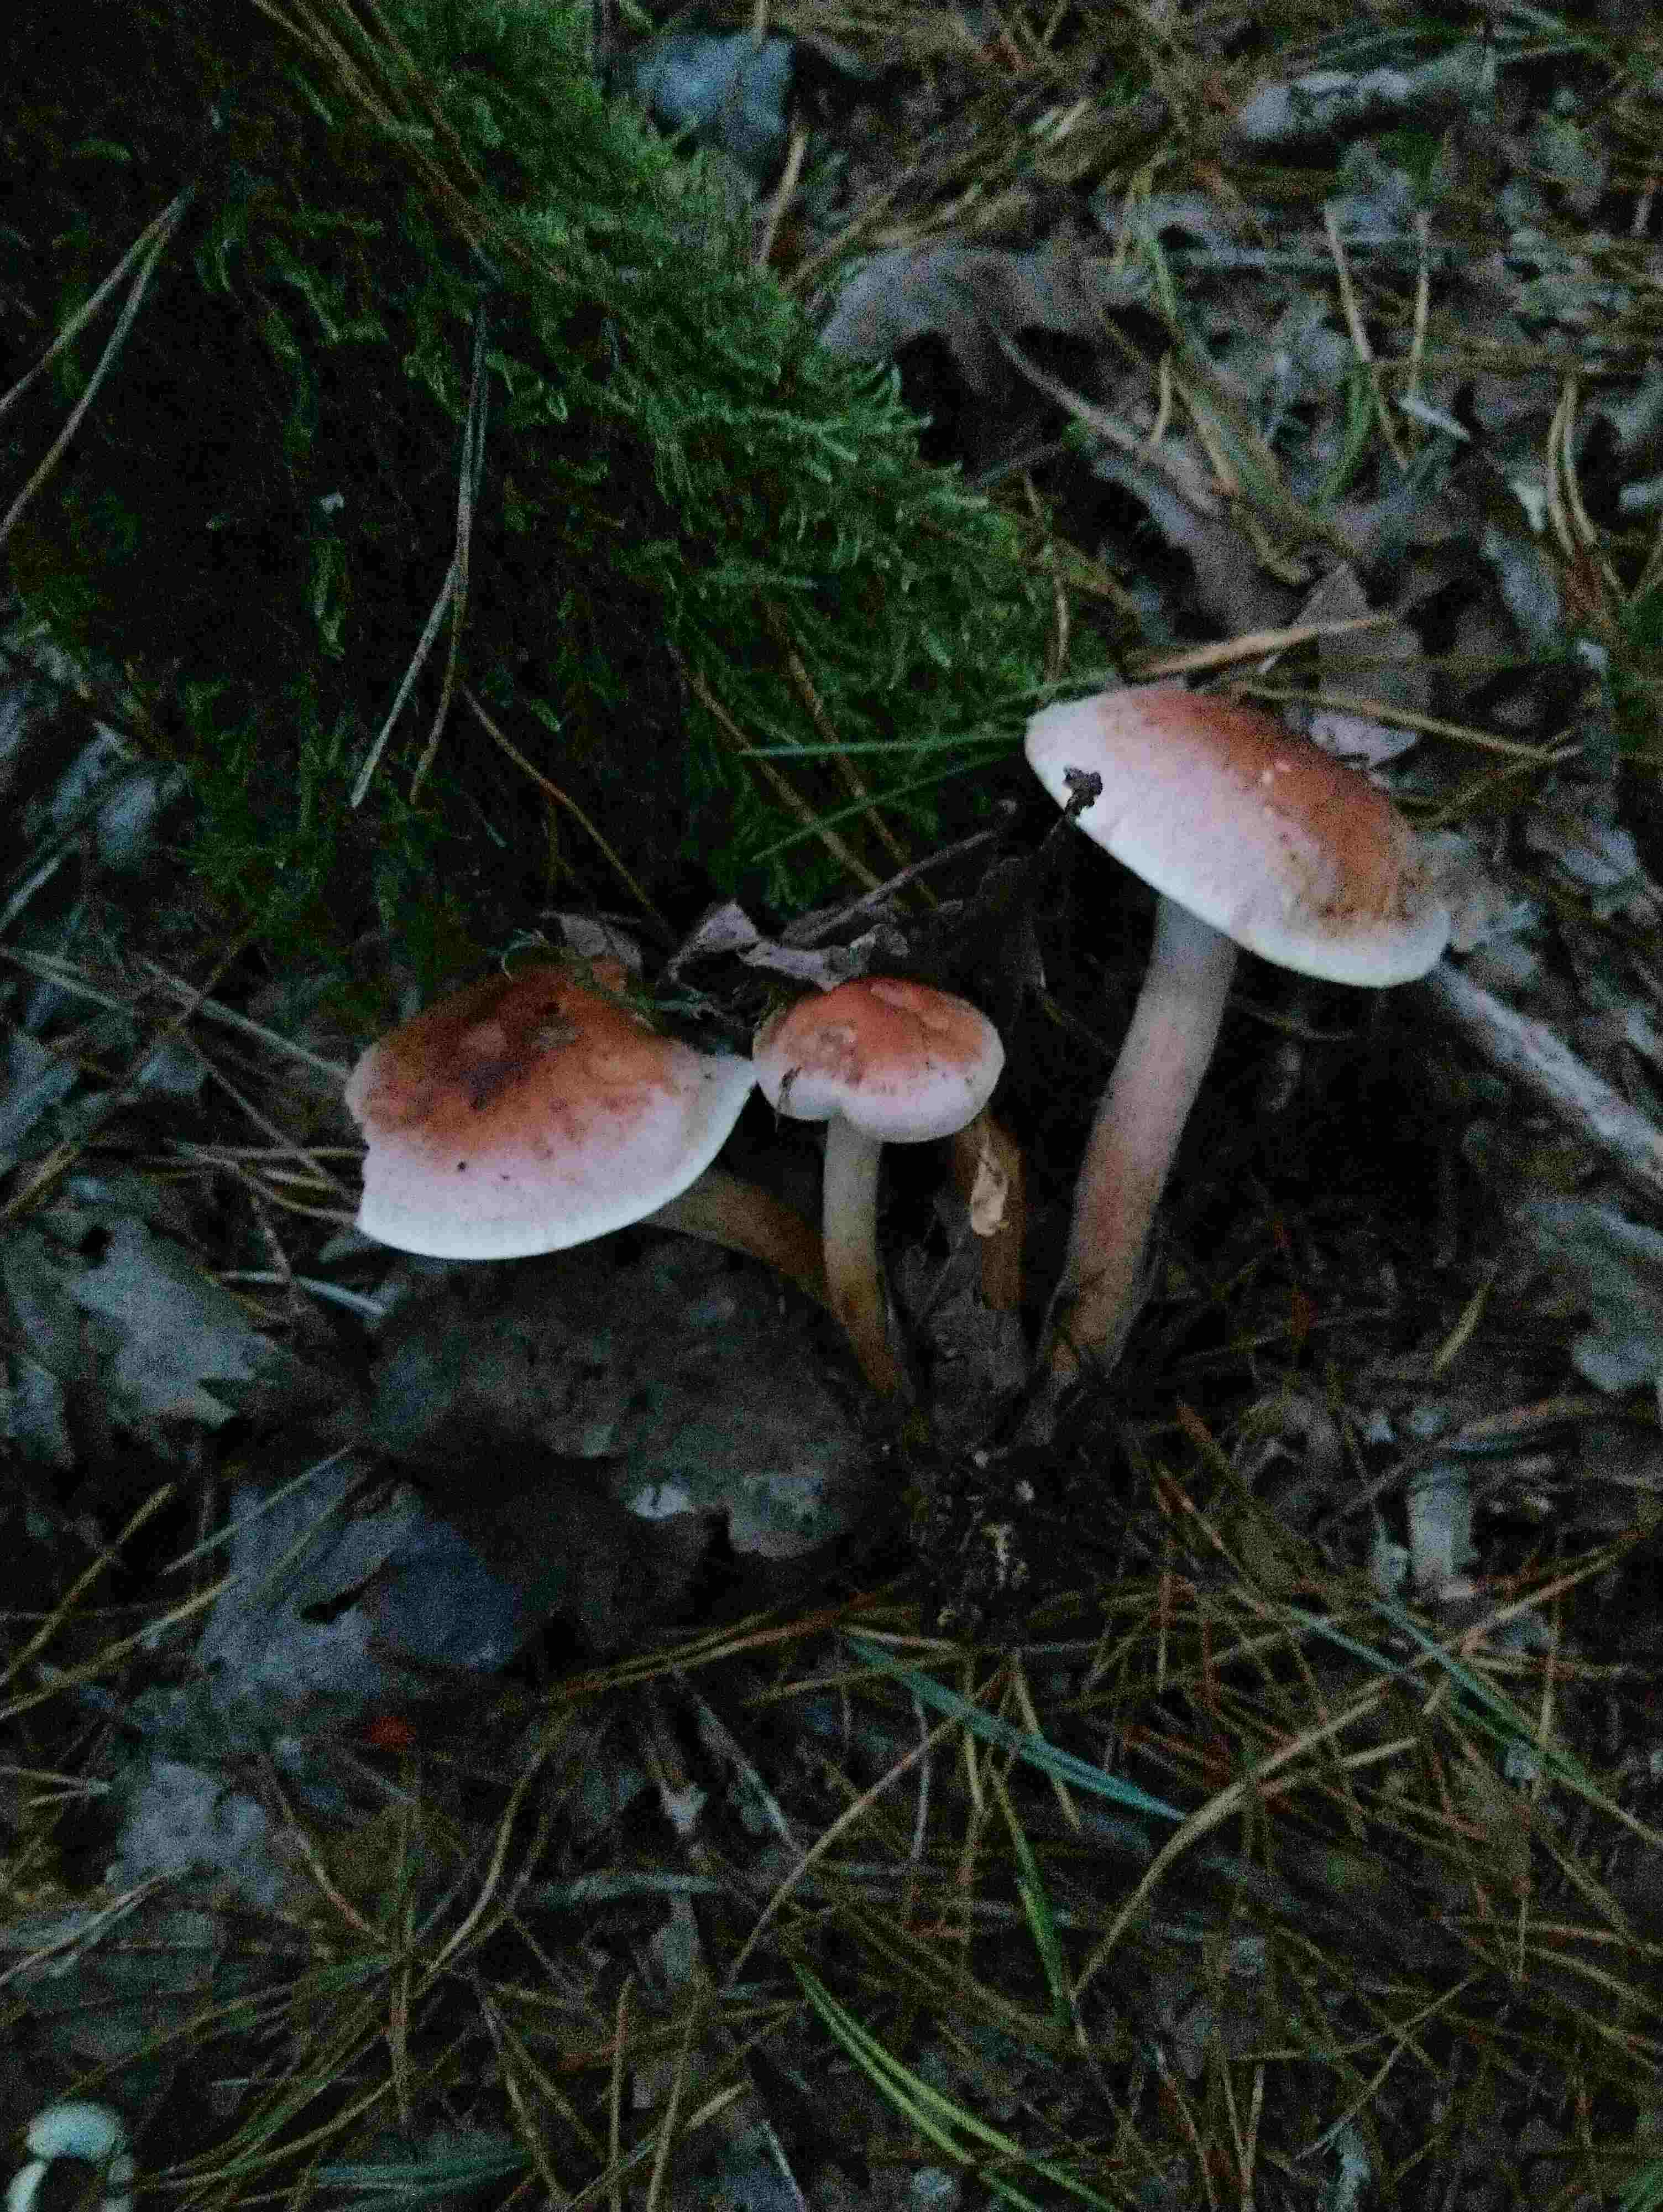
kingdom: Fungi
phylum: Basidiomycota
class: Agaricomycetes
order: Agaricales
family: Strophariaceae
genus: Hypholoma
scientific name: Hypholoma lateritium
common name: teglrød svovlhat
